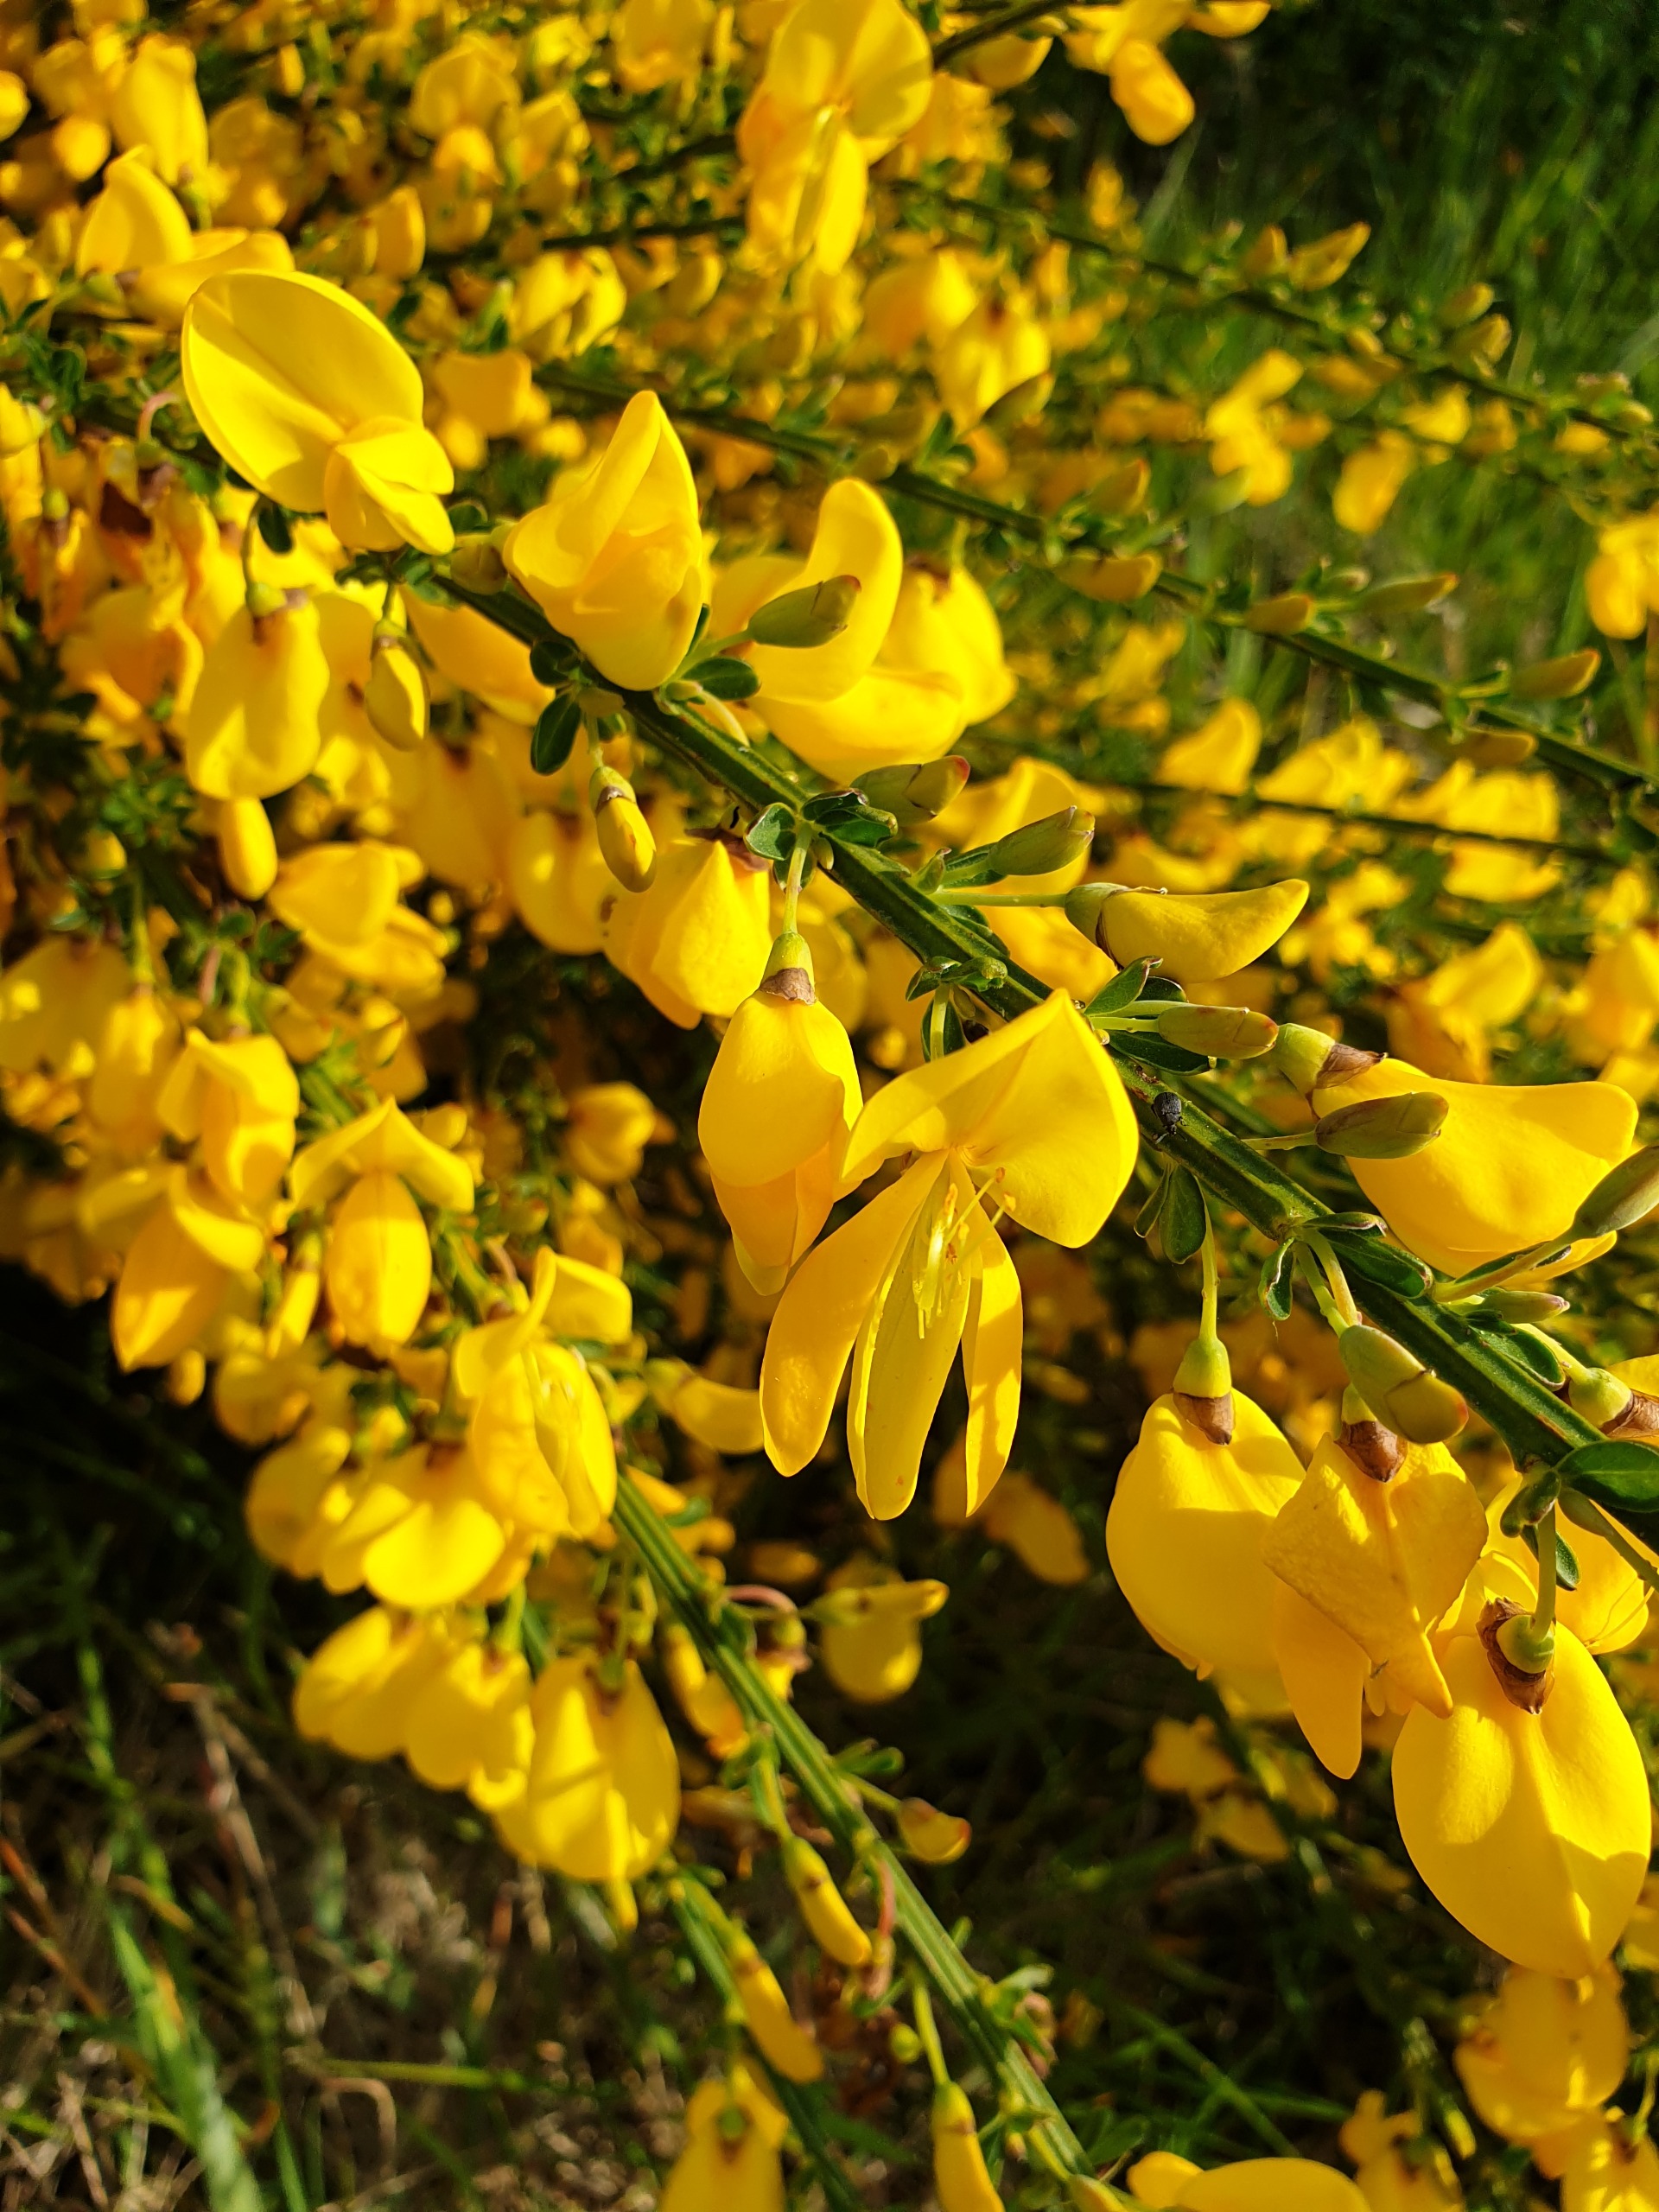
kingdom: Plantae
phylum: Tracheophyta
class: Magnoliopsida
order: Fabales
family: Fabaceae
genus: Cytisus
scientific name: Cytisus scoparius
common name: Almindelig gyvel
